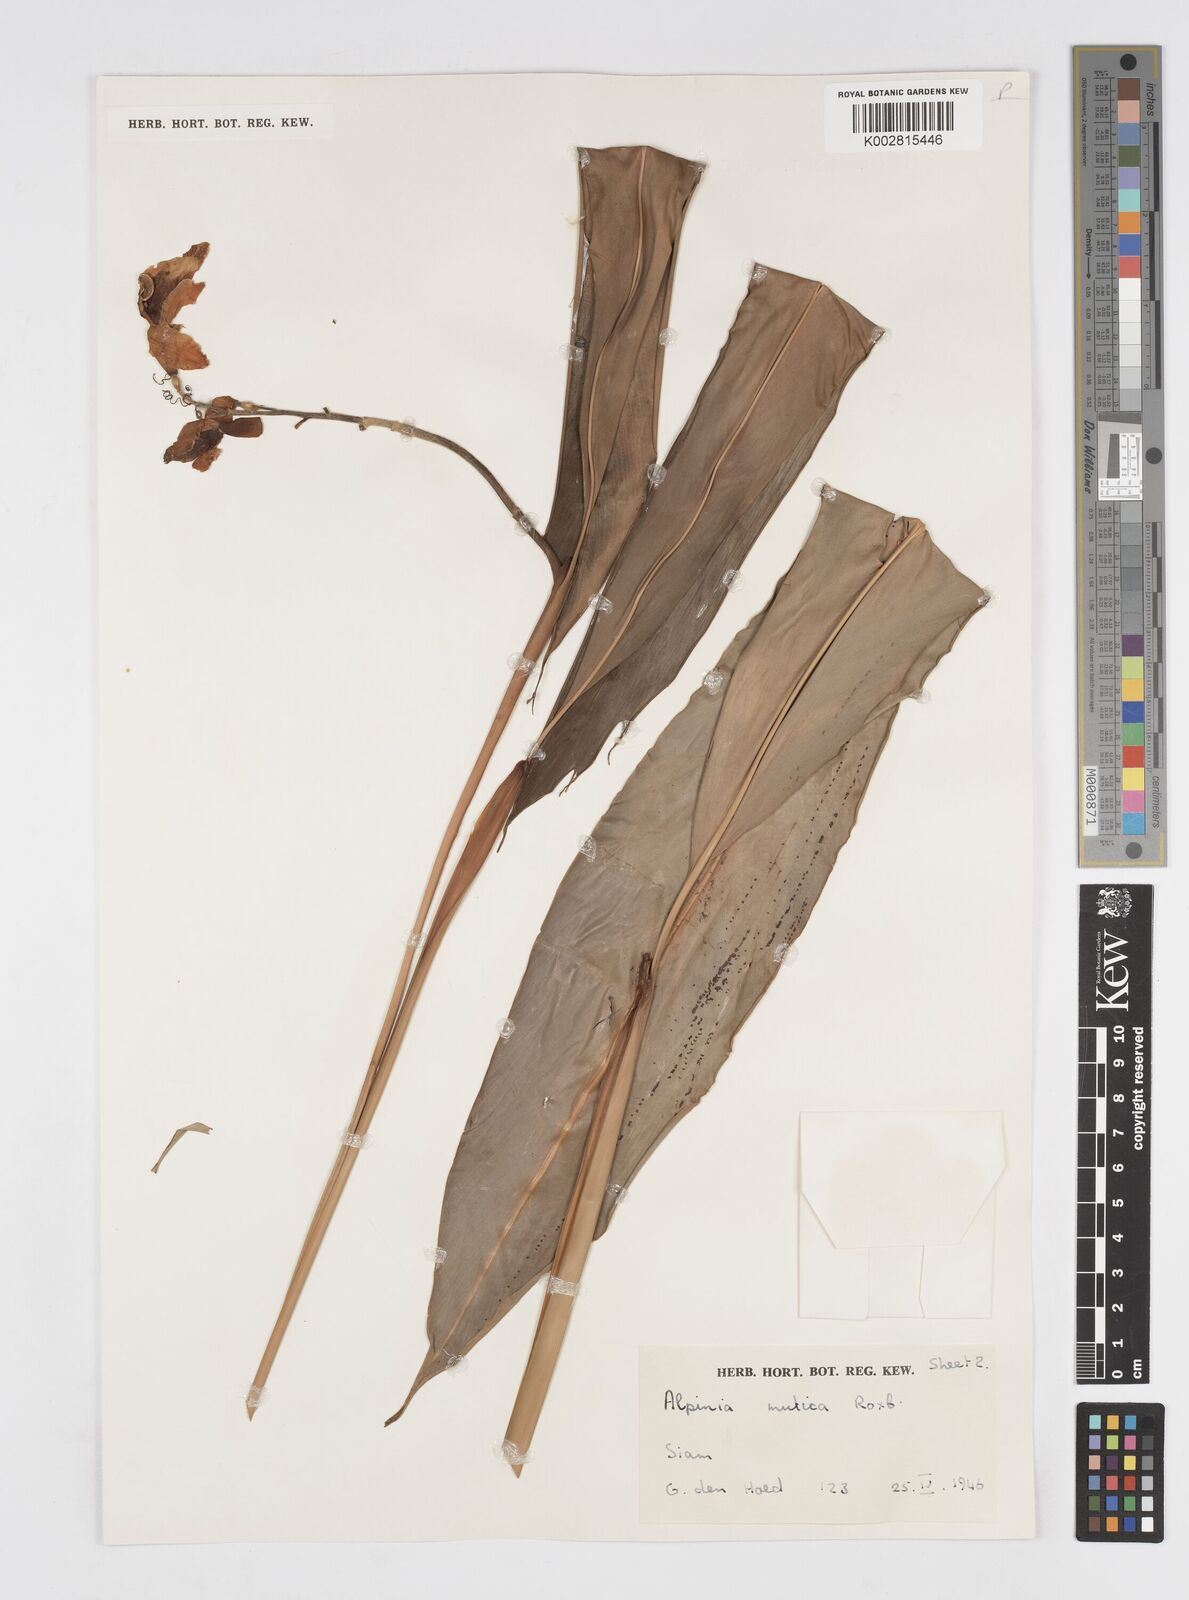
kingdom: Plantae
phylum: Tracheophyta
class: Liliopsida
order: Zingiberales
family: Zingiberaceae
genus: Alpinia
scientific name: Alpinia mutica
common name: Small shell ginger
